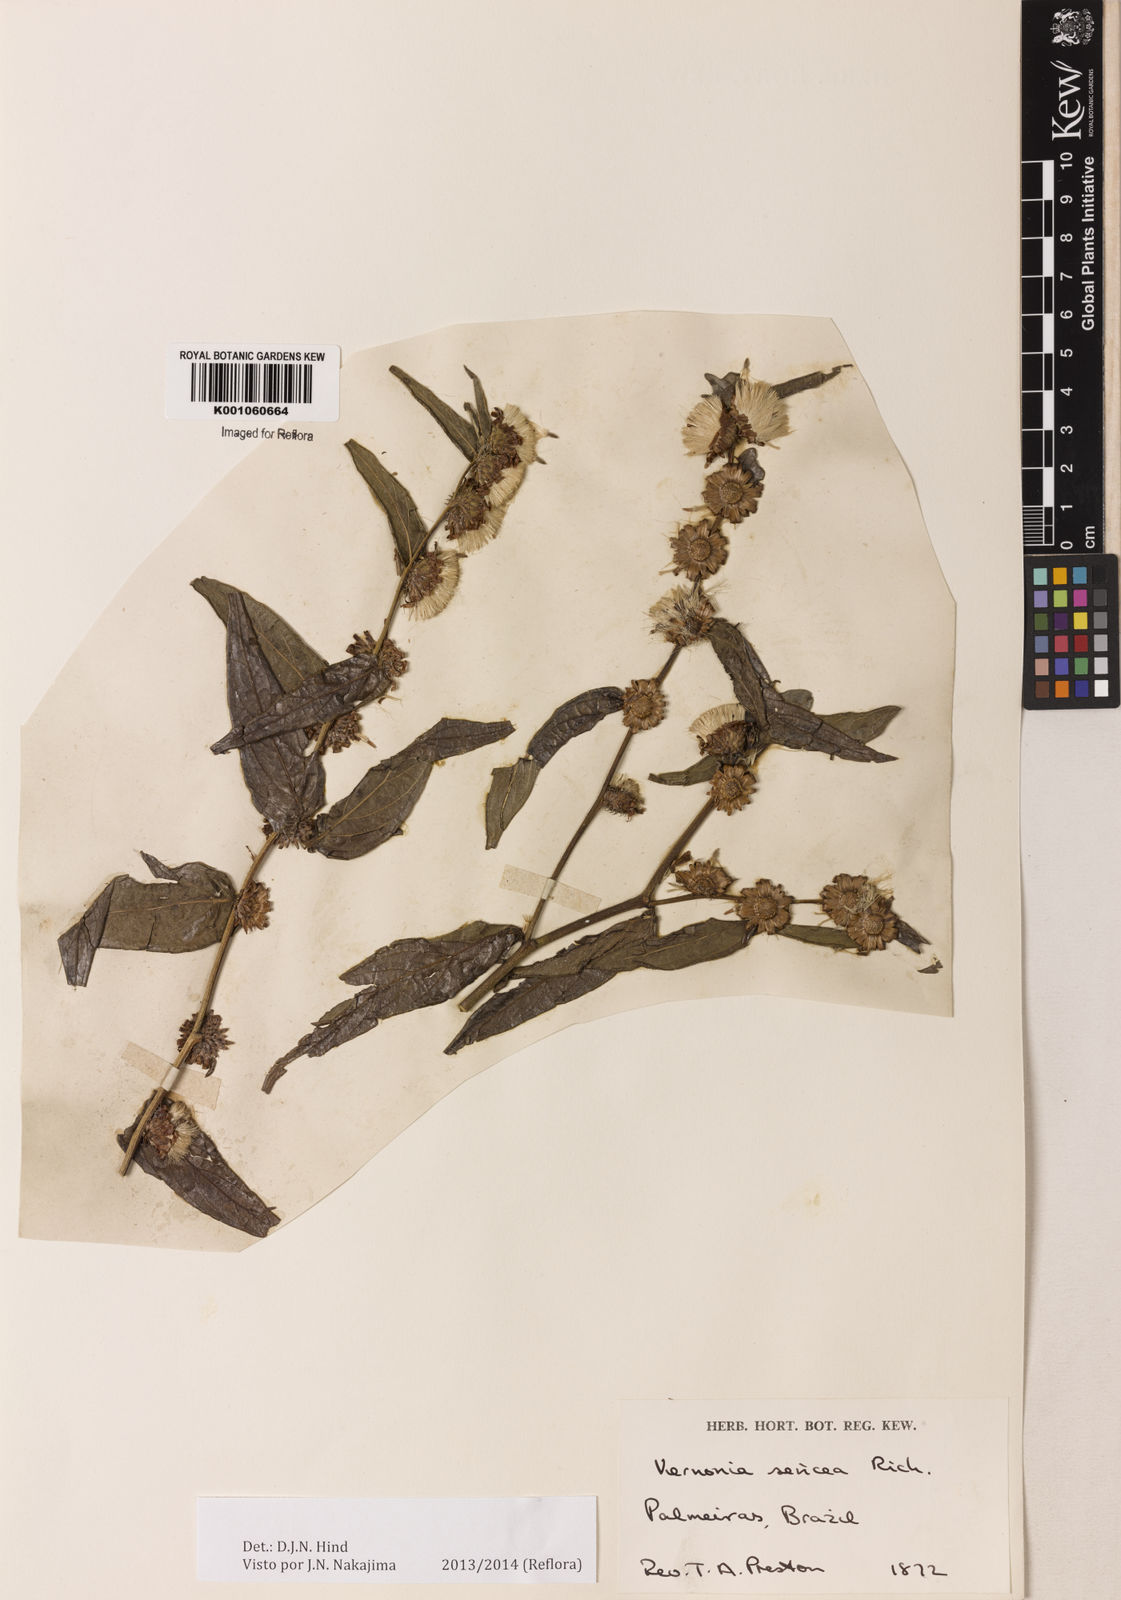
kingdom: Plantae
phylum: Tracheophyta
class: Magnoliopsida
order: Asterales
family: Asteraceae
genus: Lepidaploa
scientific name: Lepidaploa sericea
